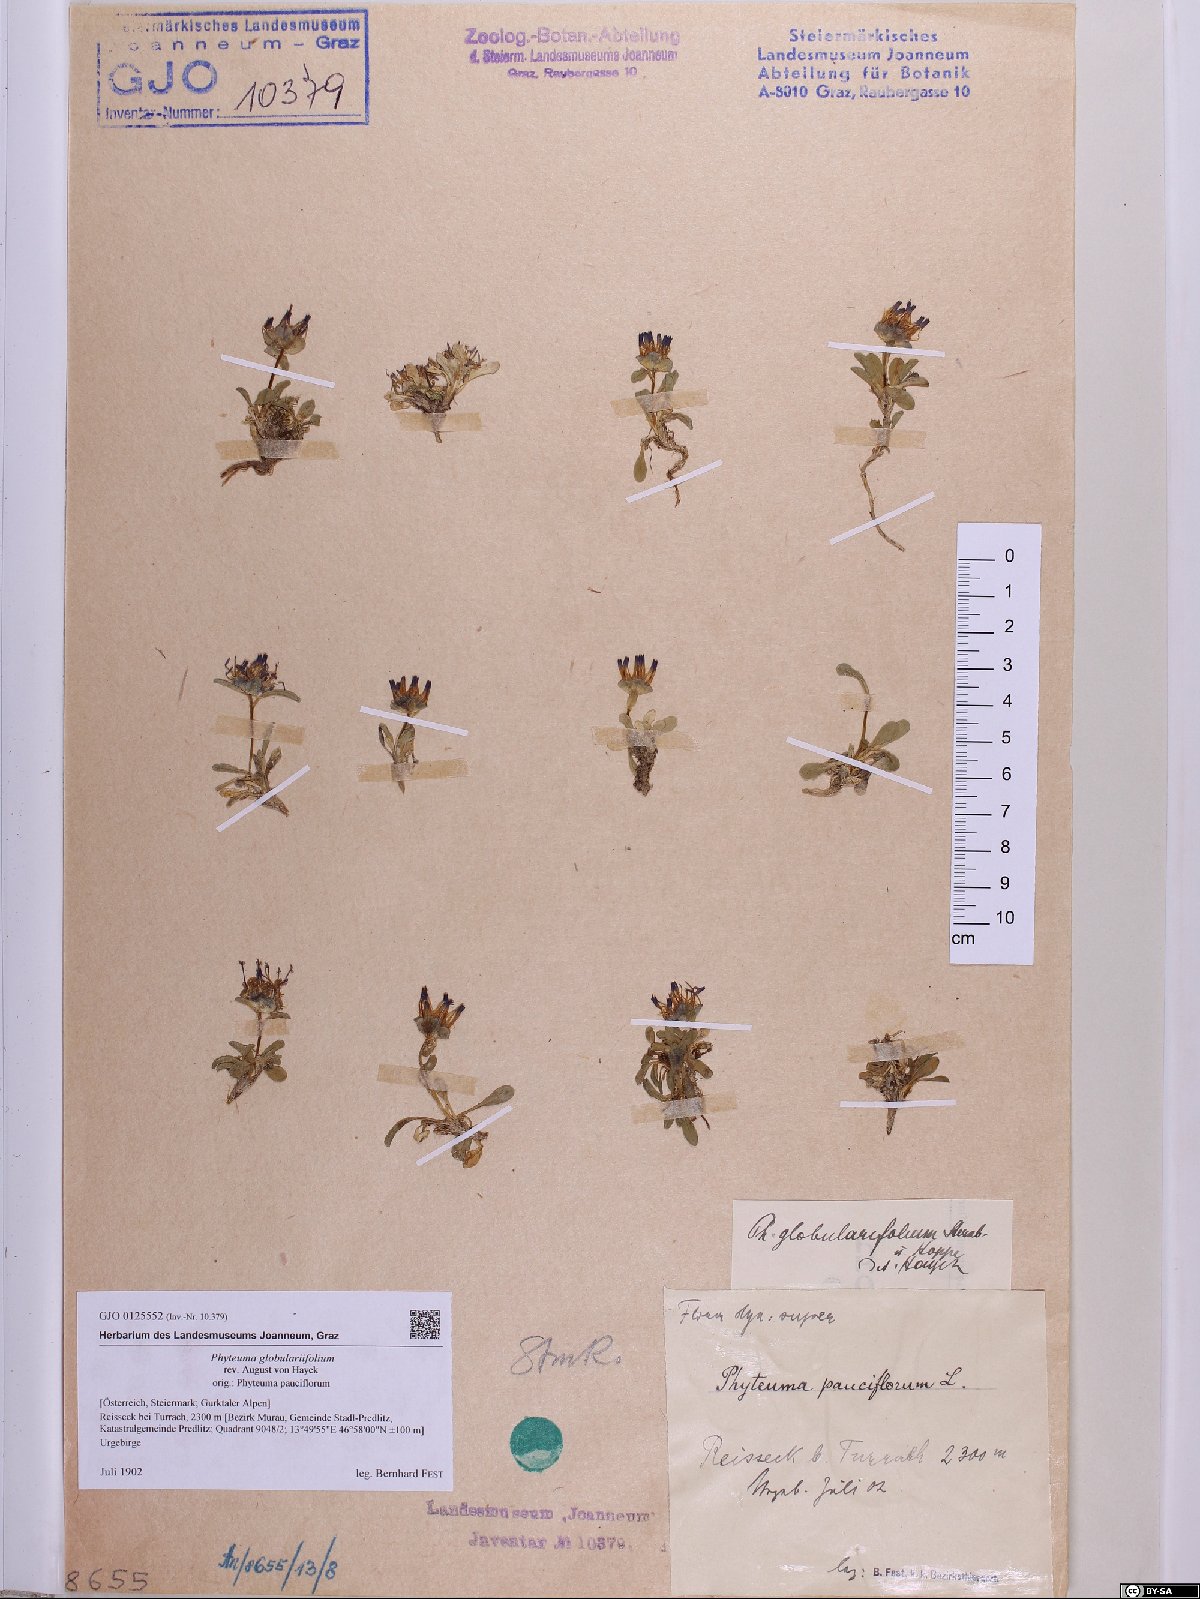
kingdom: Plantae
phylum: Tracheophyta
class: Magnoliopsida
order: Asterales
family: Campanulaceae
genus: Phyteuma
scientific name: Phyteuma globulariifolium
